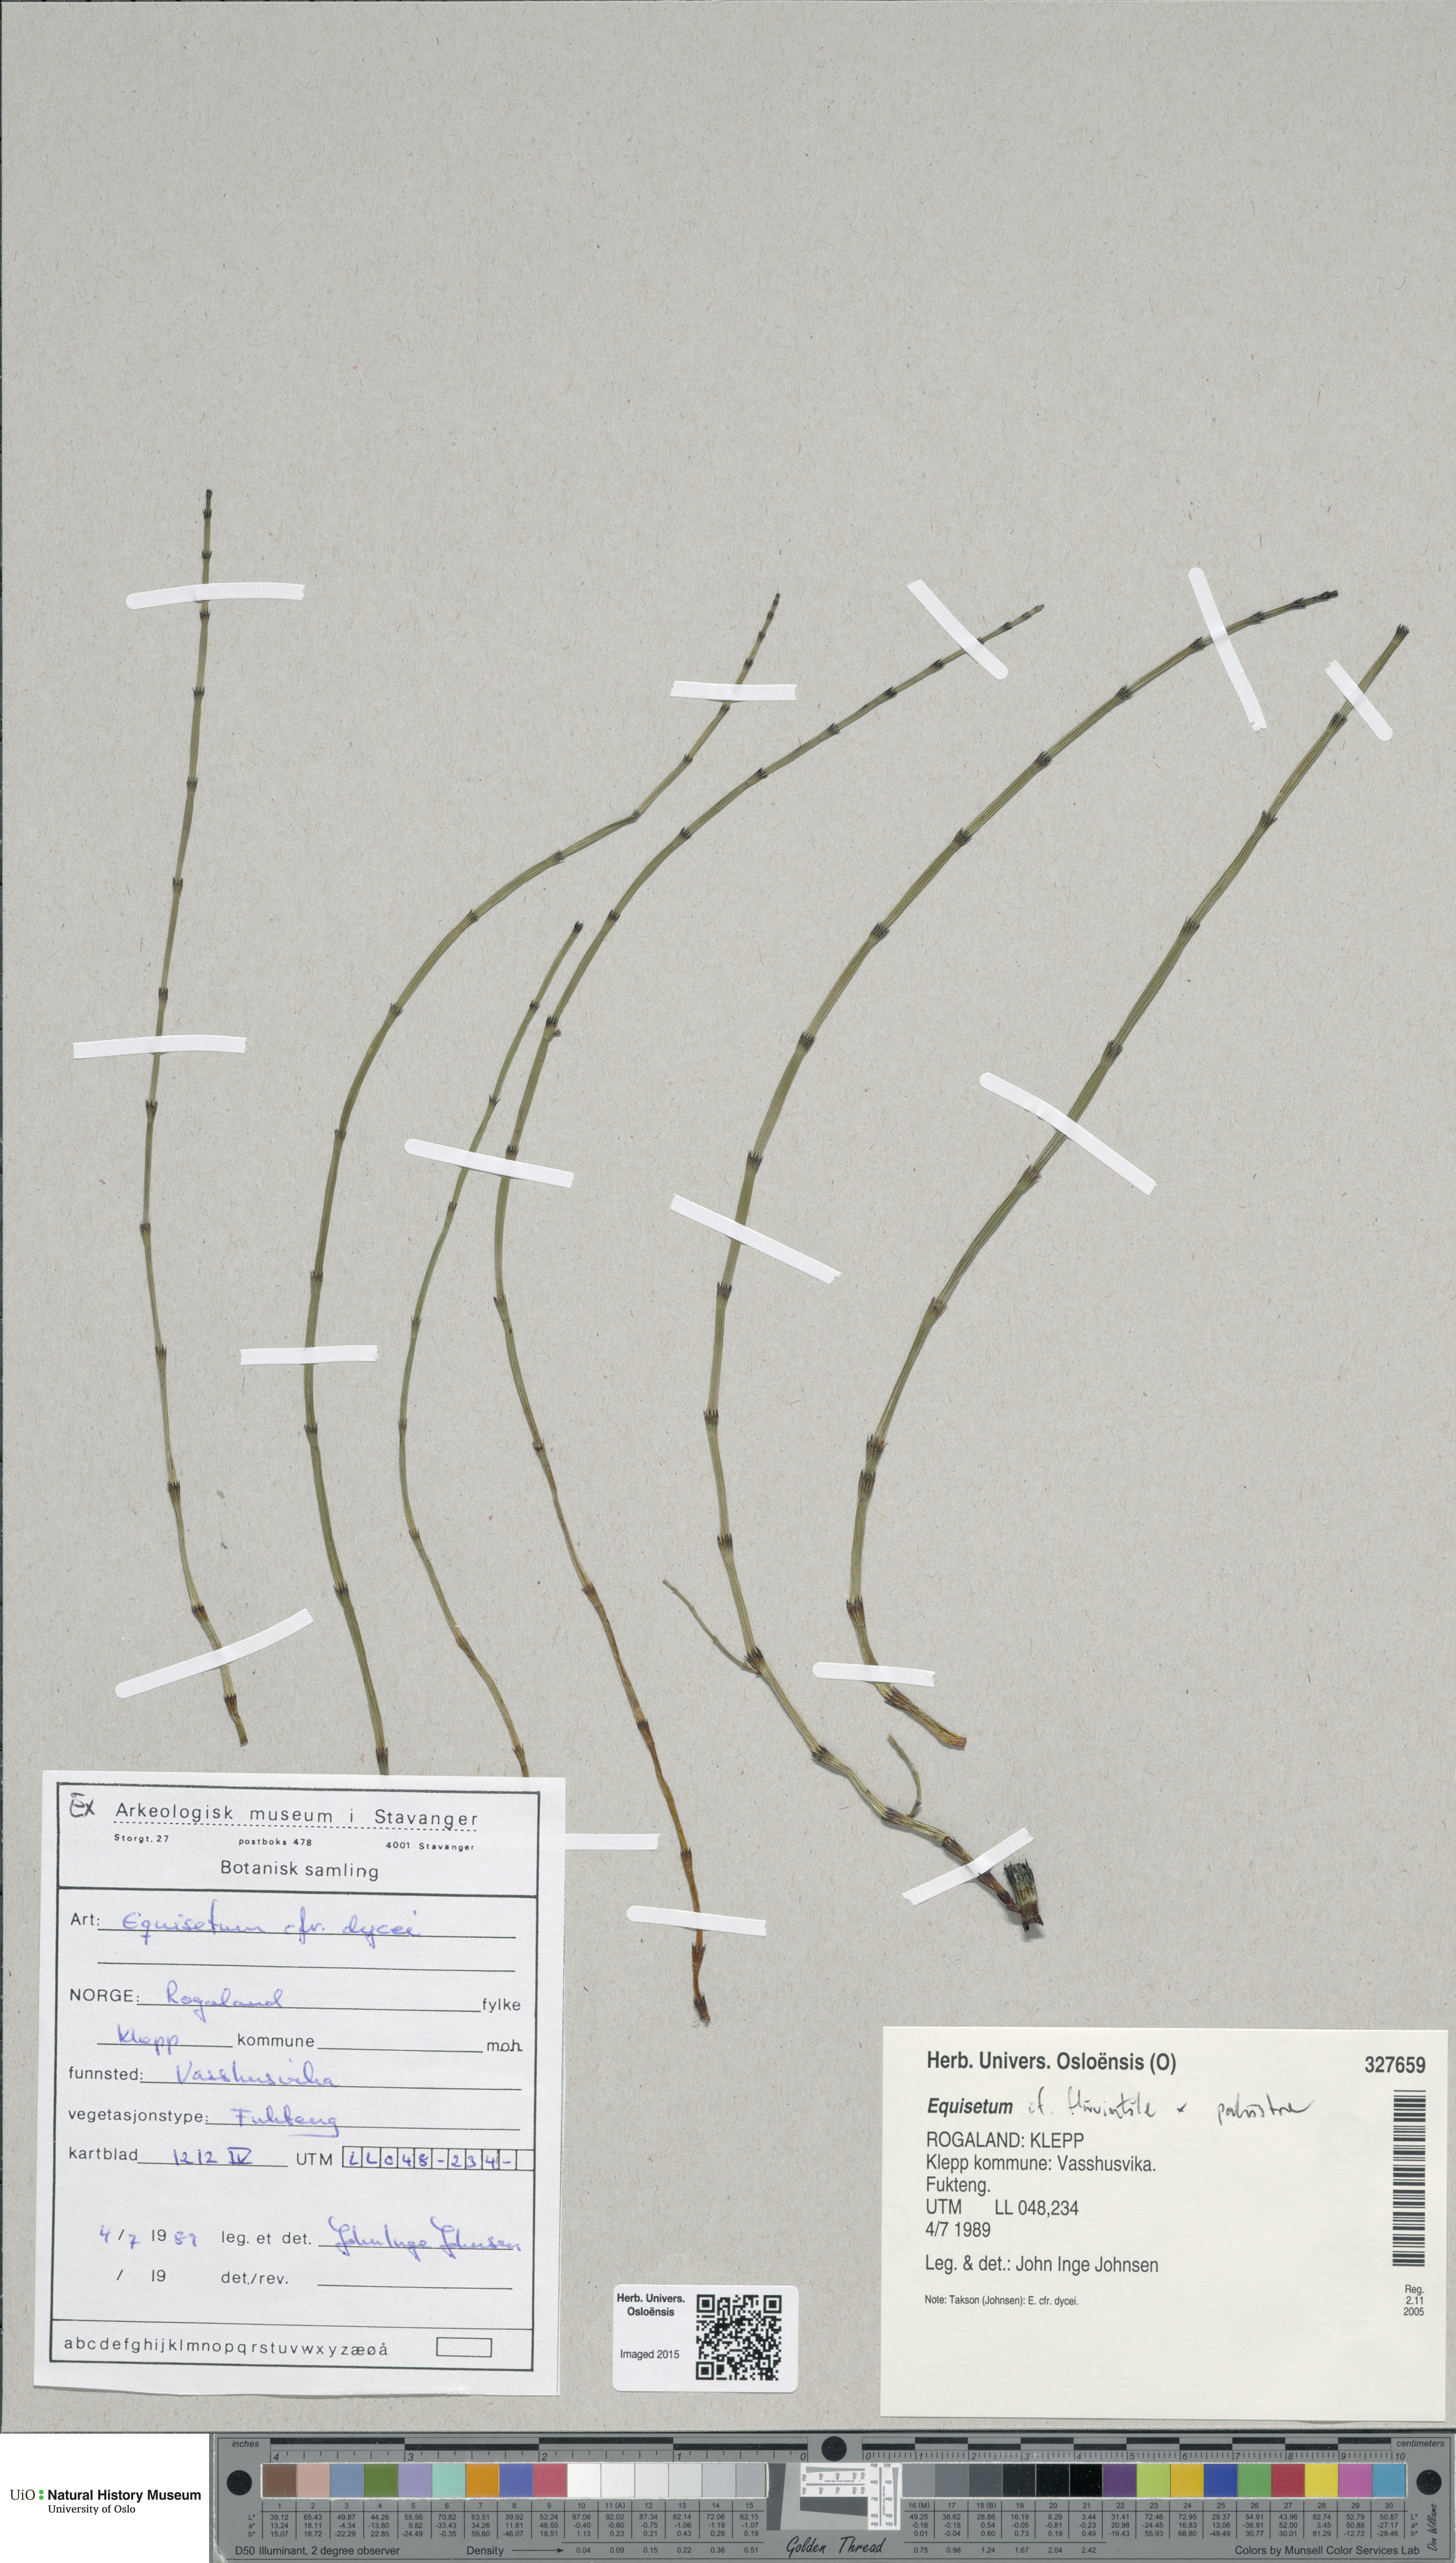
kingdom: Plantae
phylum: Tracheophyta
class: Polypodiopsida
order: Equisetales
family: Equisetaceae
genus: Equisetum
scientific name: Equisetum
